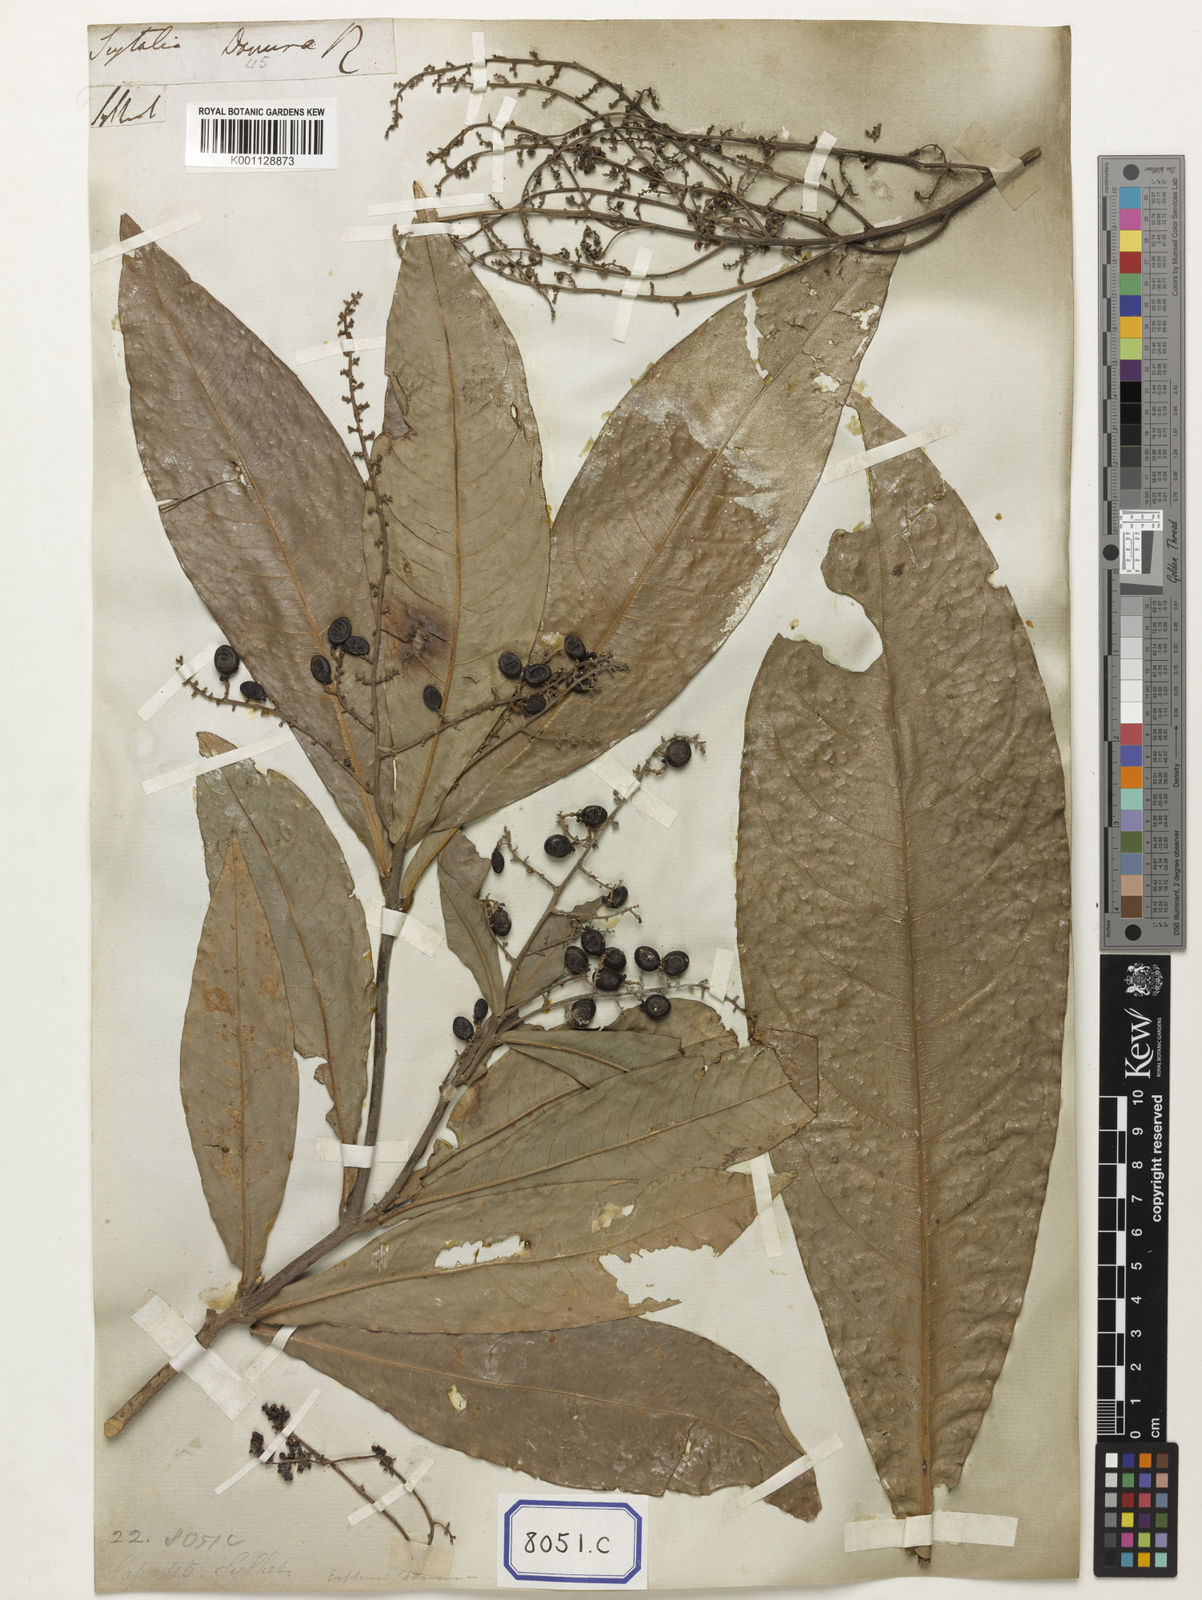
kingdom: Plantae
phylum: Tracheophyta
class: Magnoliopsida
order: Sapindales
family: Sapindaceae
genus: Lepisanthes
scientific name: Lepisanthes senegalensis
